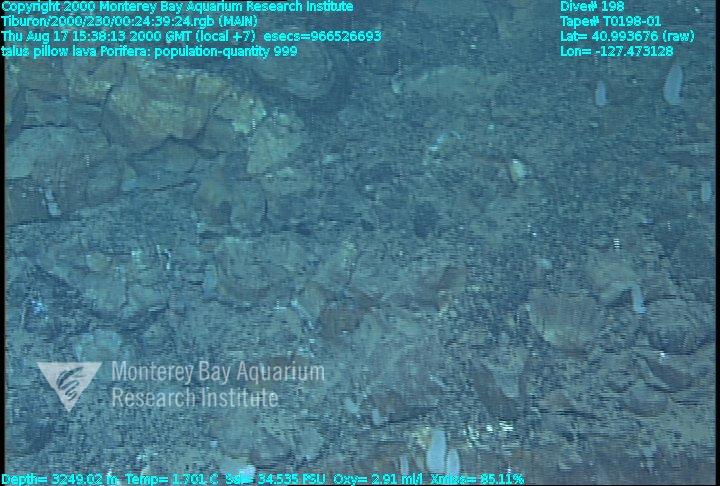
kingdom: Animalia
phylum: Porifera
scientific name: Porifera
